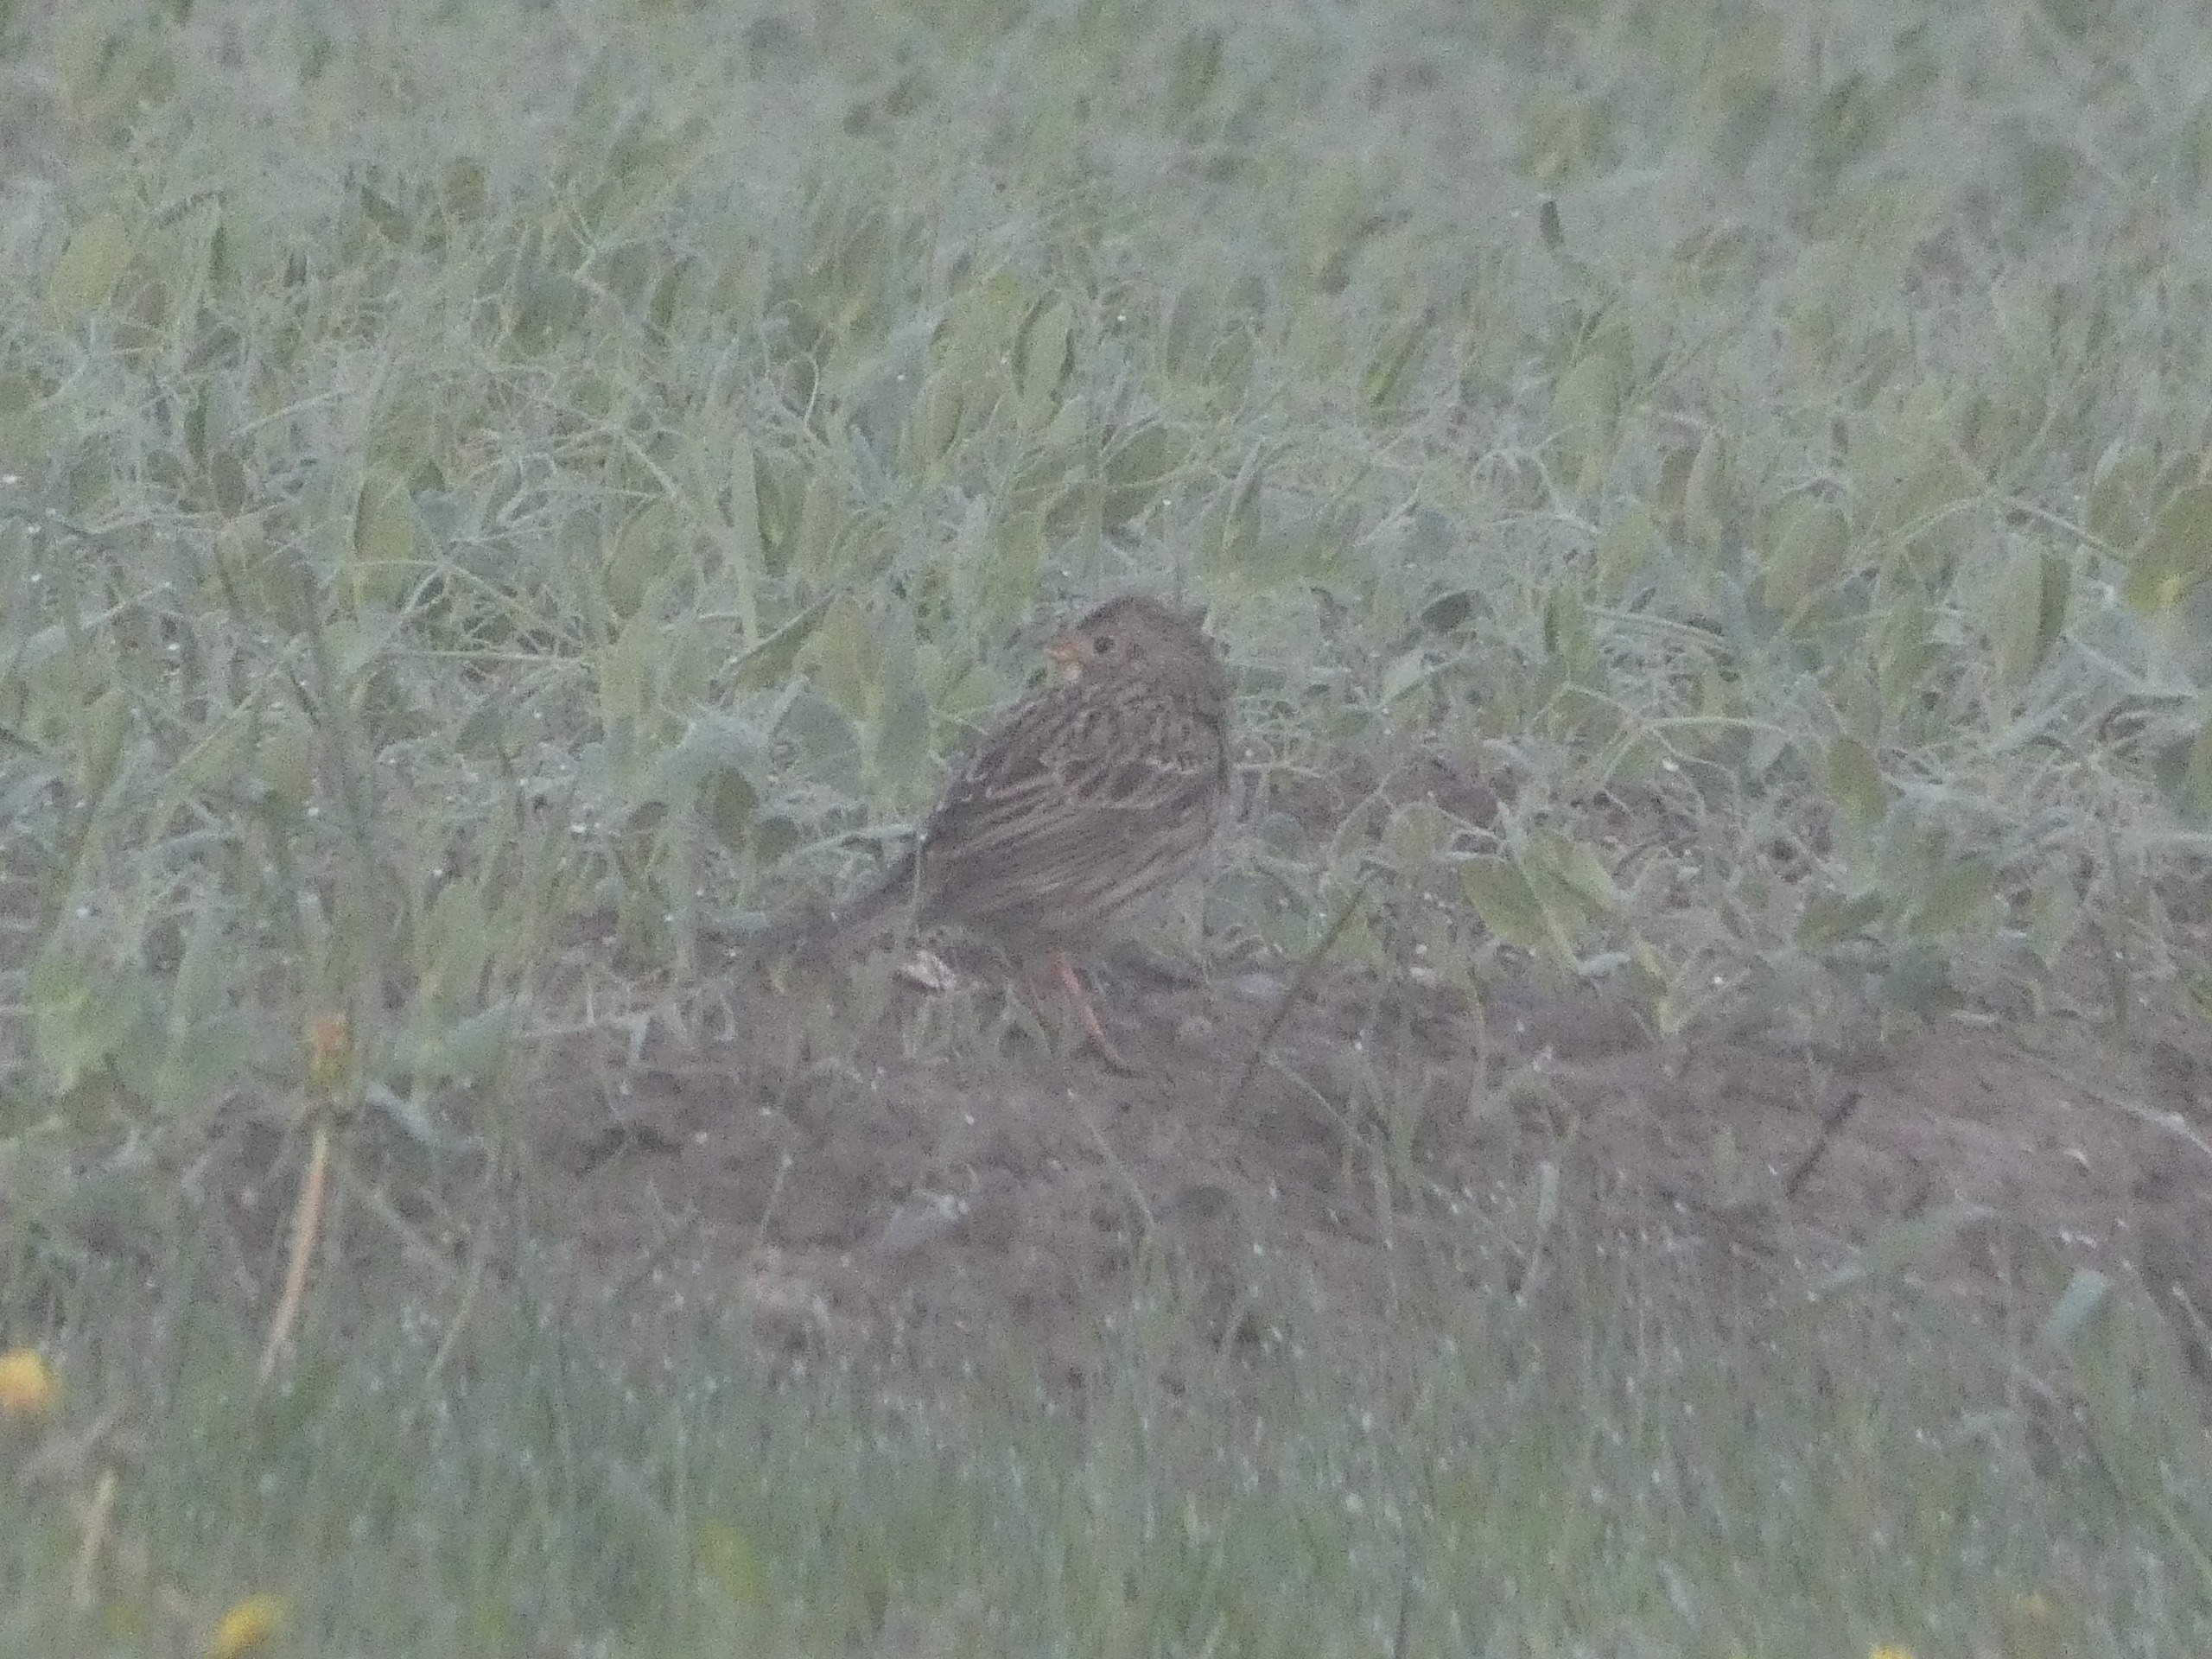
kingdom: Animalia
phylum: Chordata
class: Aves
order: Passeriformes
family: Emberizidae
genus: Emberiza
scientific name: Emberiza calandra
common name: Bomlærke
